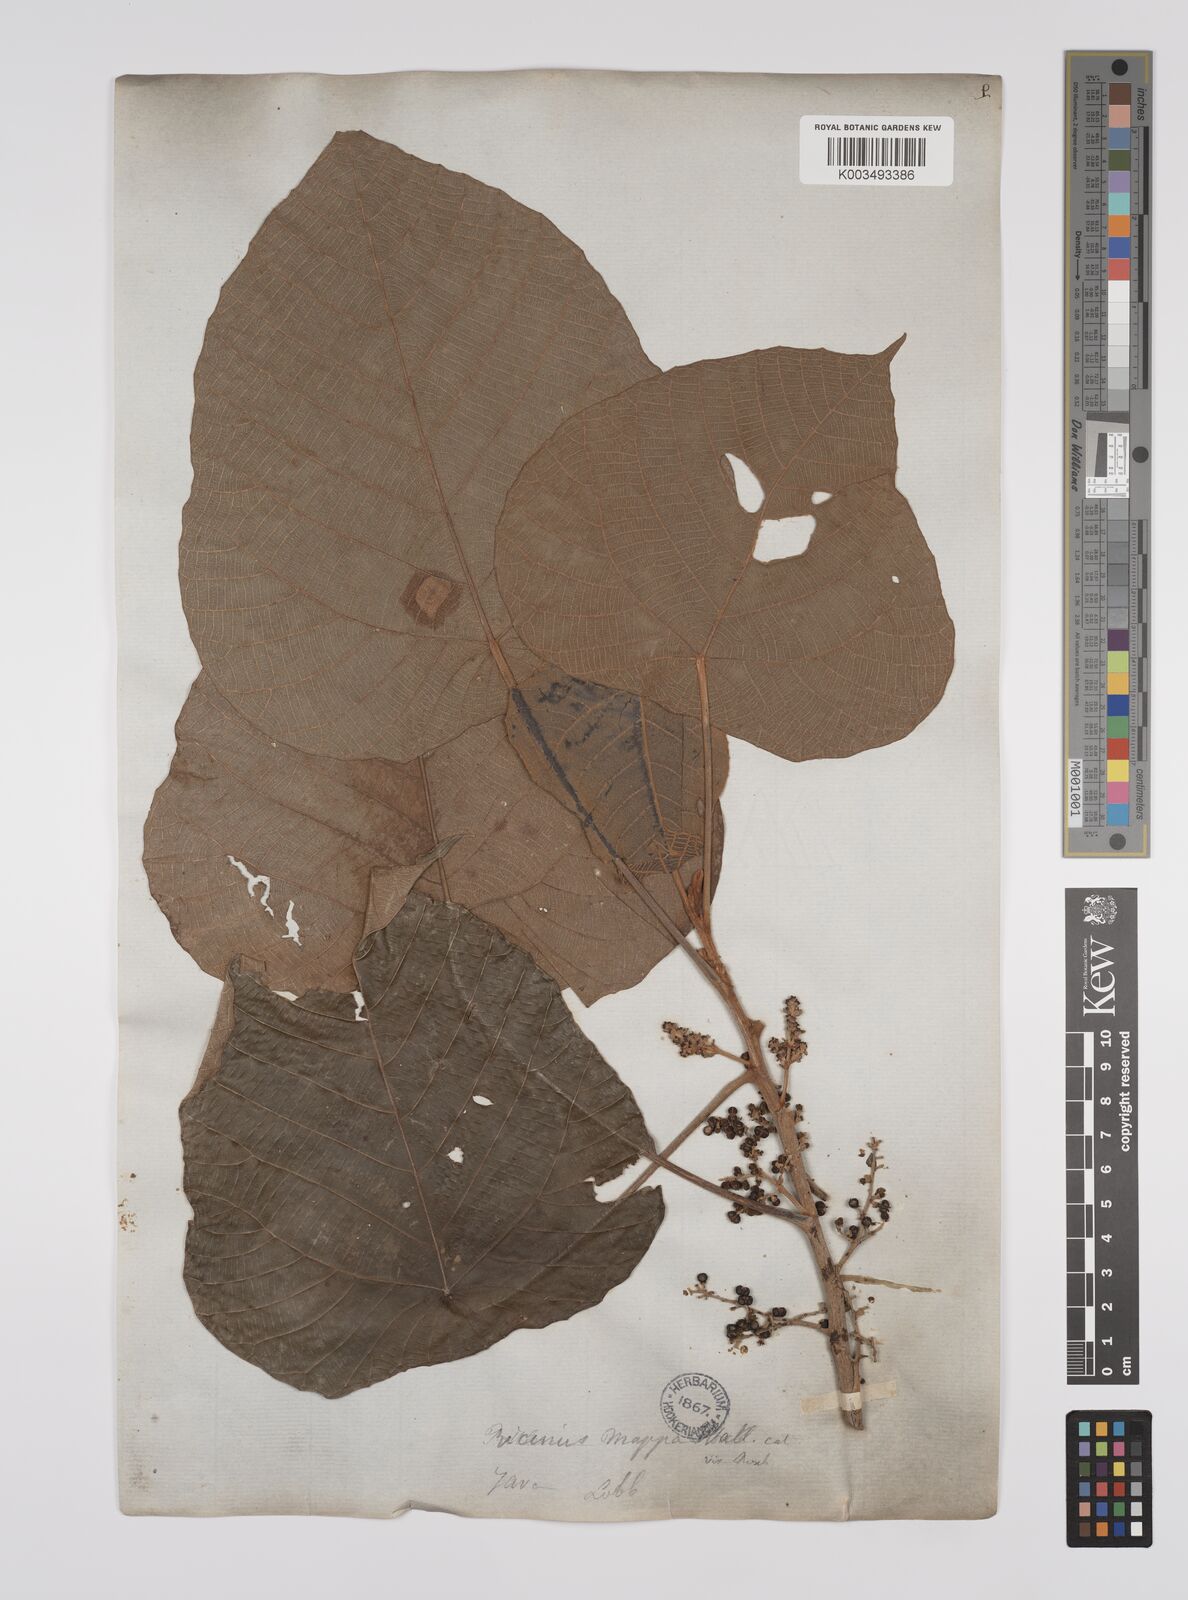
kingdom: Plantae
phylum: Tracheophyta
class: Magnoliopsida
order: Malpighiales
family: Euphorbiaceae
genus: Macaranga
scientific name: Macaranga denticulata
